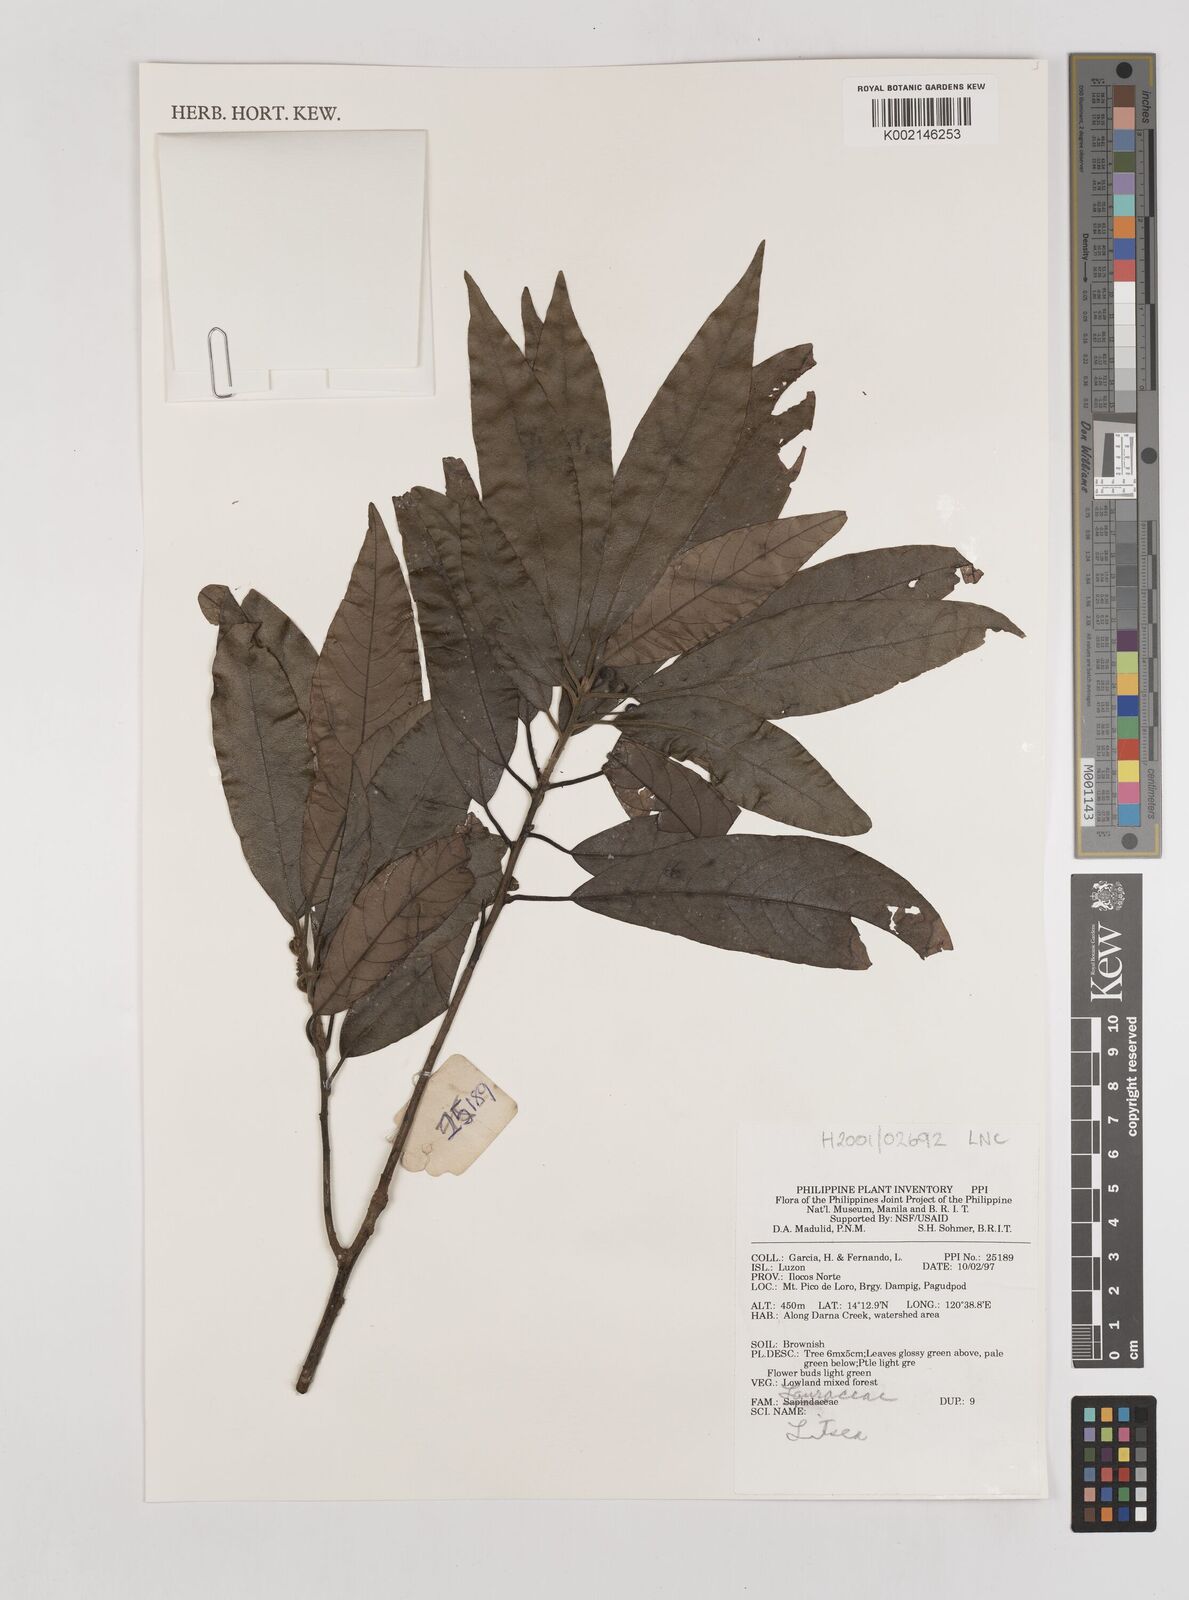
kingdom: Plantae
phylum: Tracheophyta
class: Magnoliopsida
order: Laurales
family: Lauraceae
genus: Litsea
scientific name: Litsea
